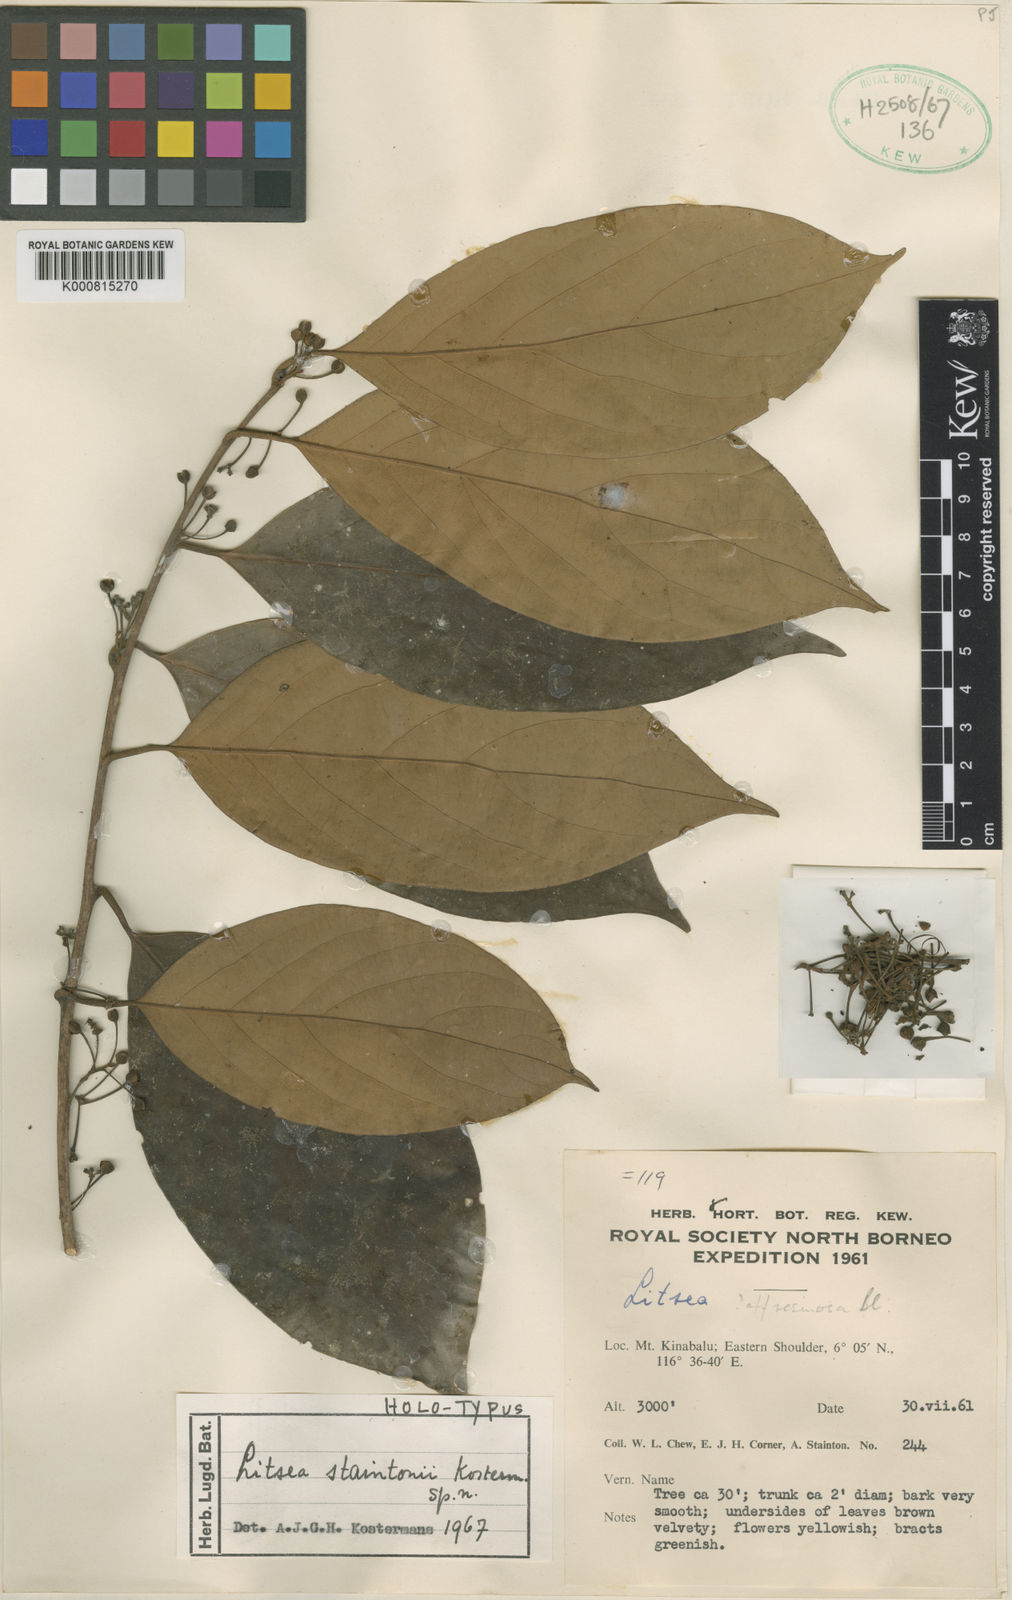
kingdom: Plantae
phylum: Tracheophyta
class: Magnoliopsida
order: Laurales
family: Lauraceae
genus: Litsea
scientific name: Litsea staintonii
